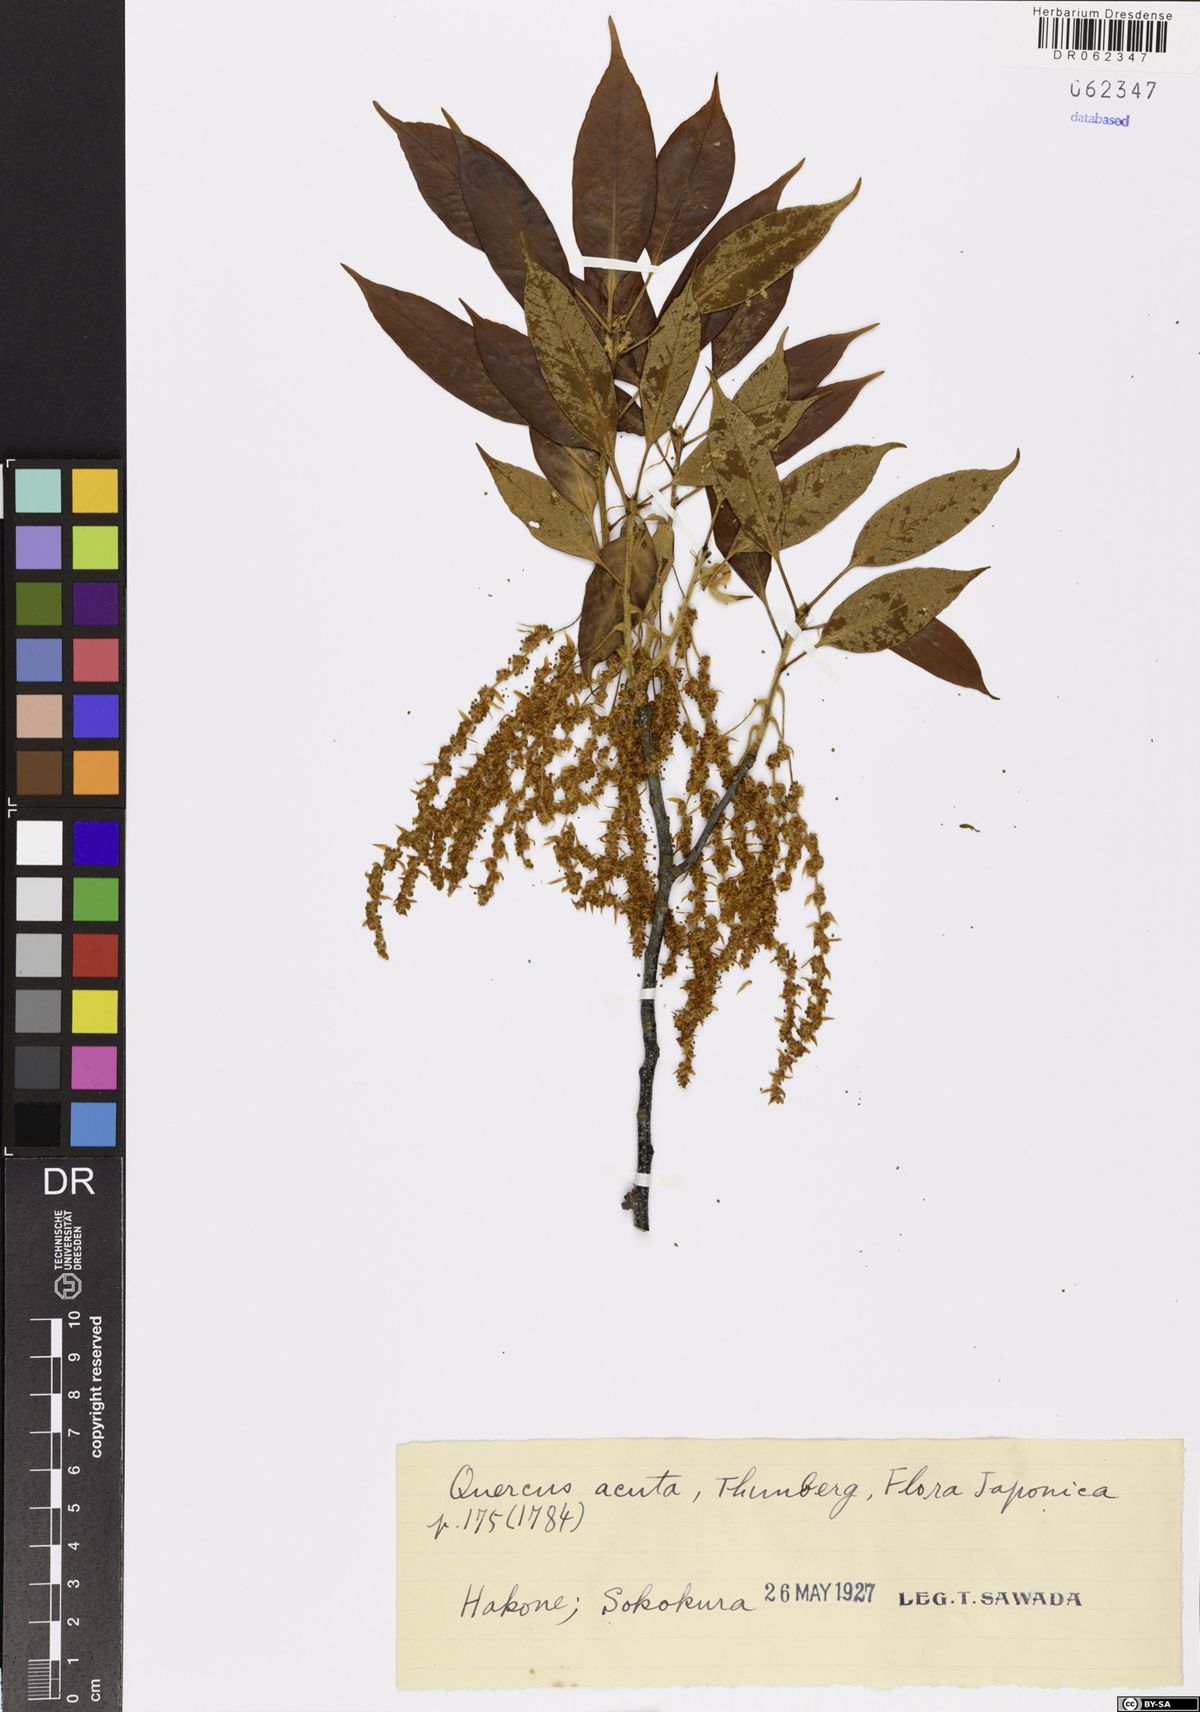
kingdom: Plantae
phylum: Tracheophyta
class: Magnoliopsida
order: Fagales
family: Fagaceae
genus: Quercus
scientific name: Quercus acuta
